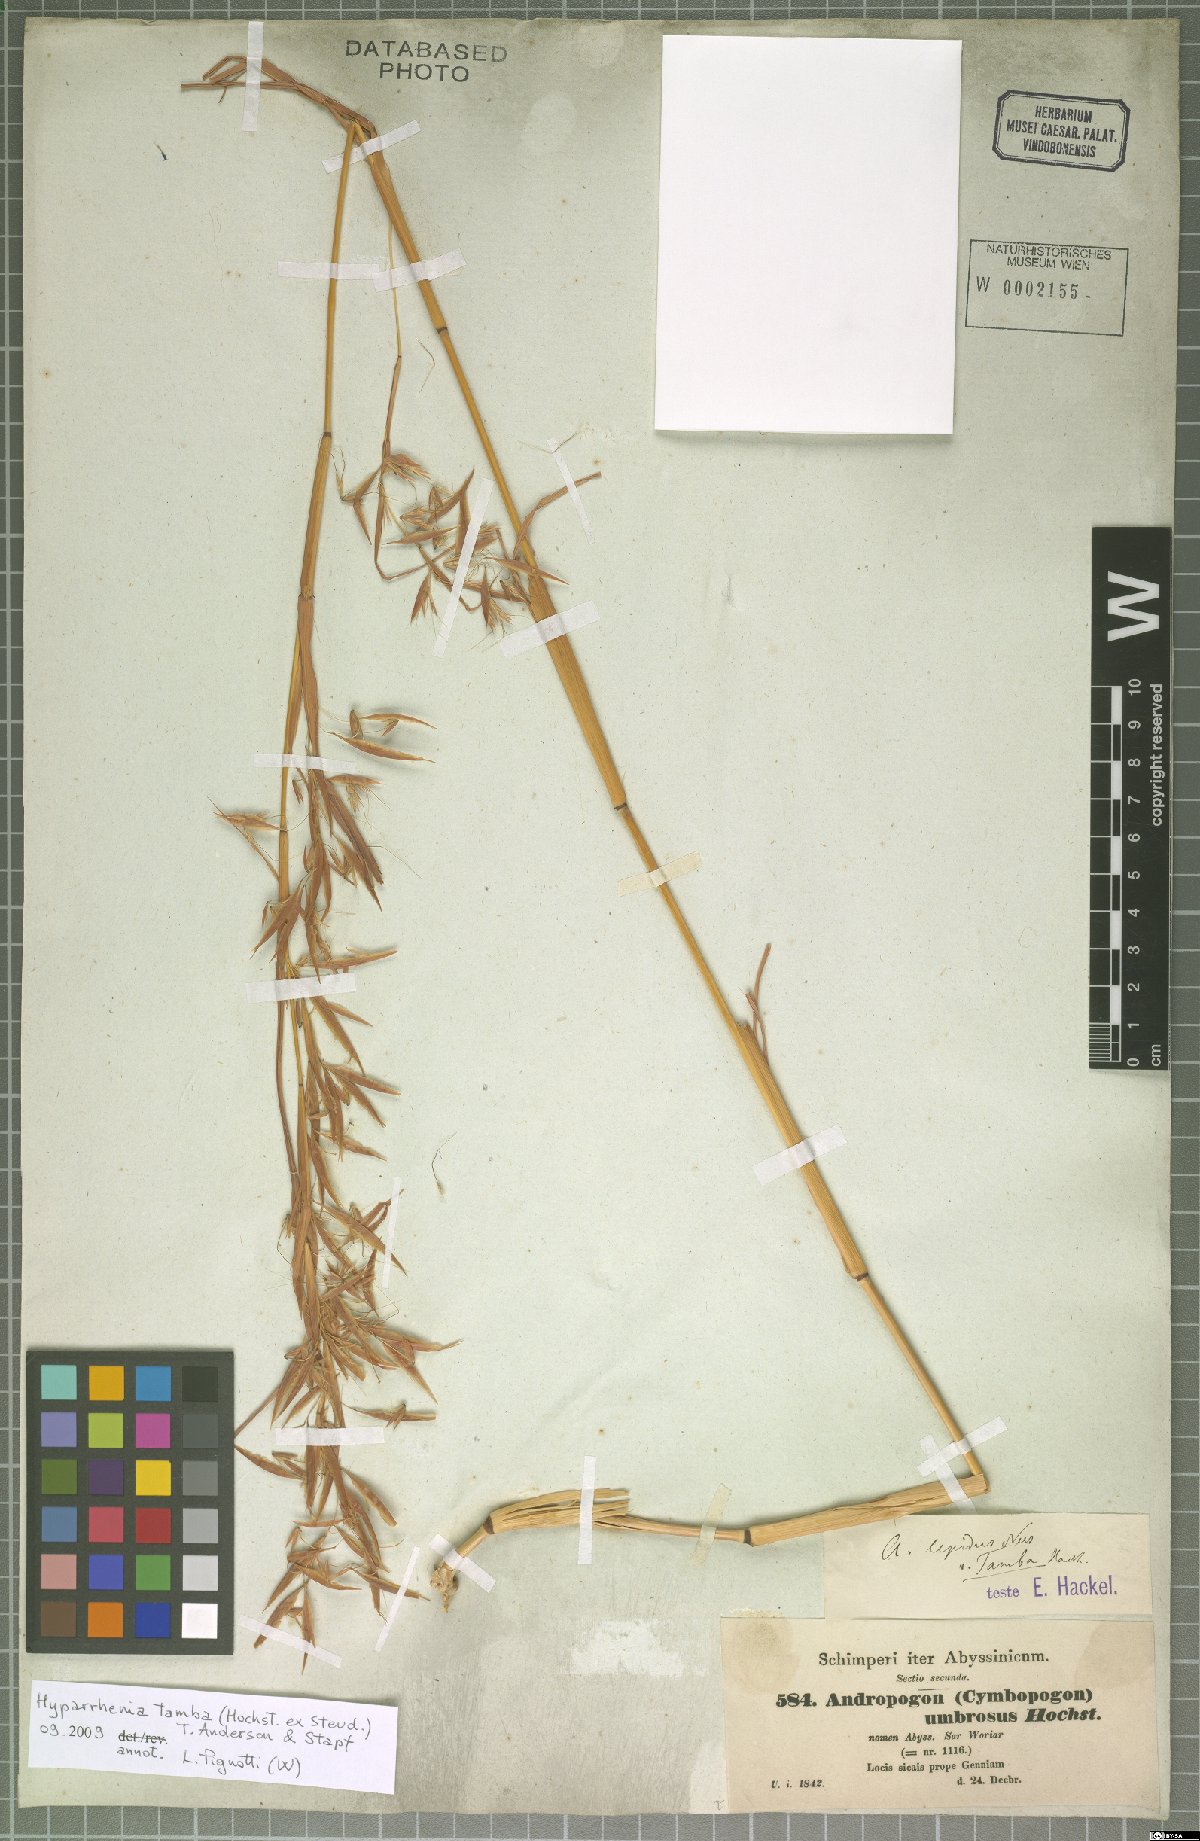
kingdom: Plantae
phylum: Tracheophyta
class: Liliopsida
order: Poales
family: Poaceae
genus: Hyparrhenia
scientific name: Hyparrhenia tamba
